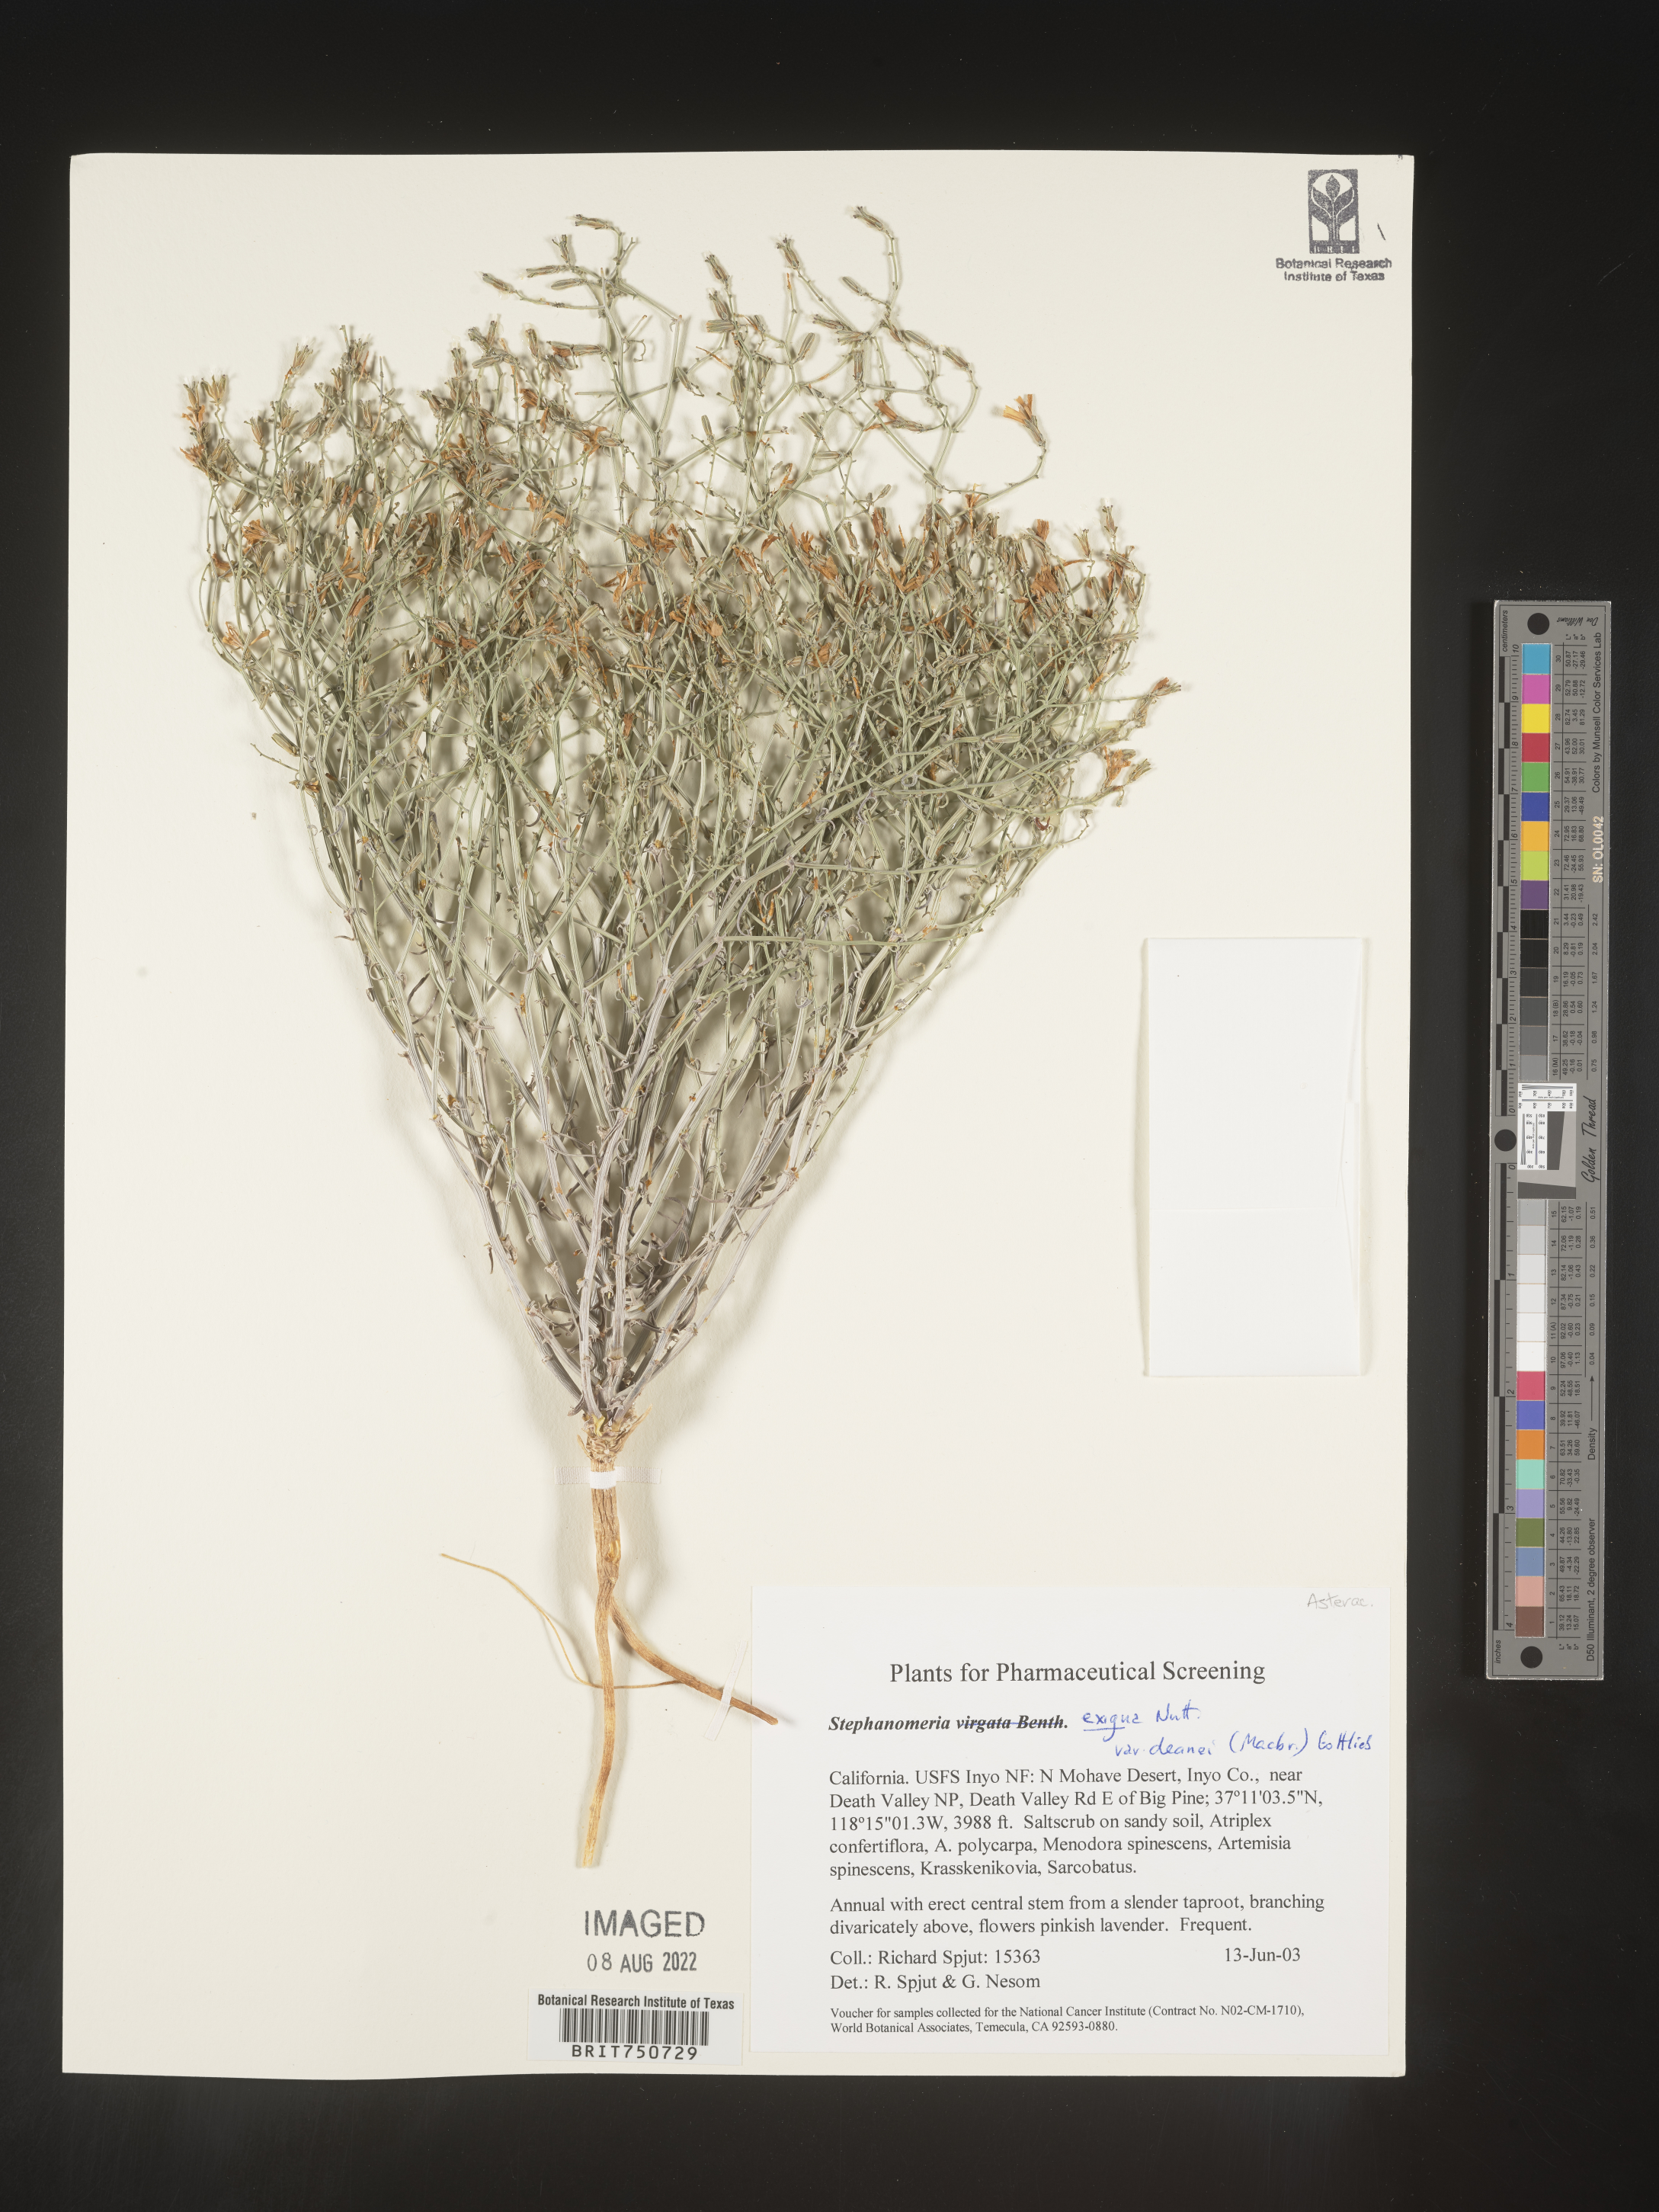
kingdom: Plantae
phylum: Tracheophyta
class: Magnoliopsida
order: Asterales
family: Asteraceae
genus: Stephanomeria
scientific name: Stephanomeria exigua
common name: Small wirelettuce
